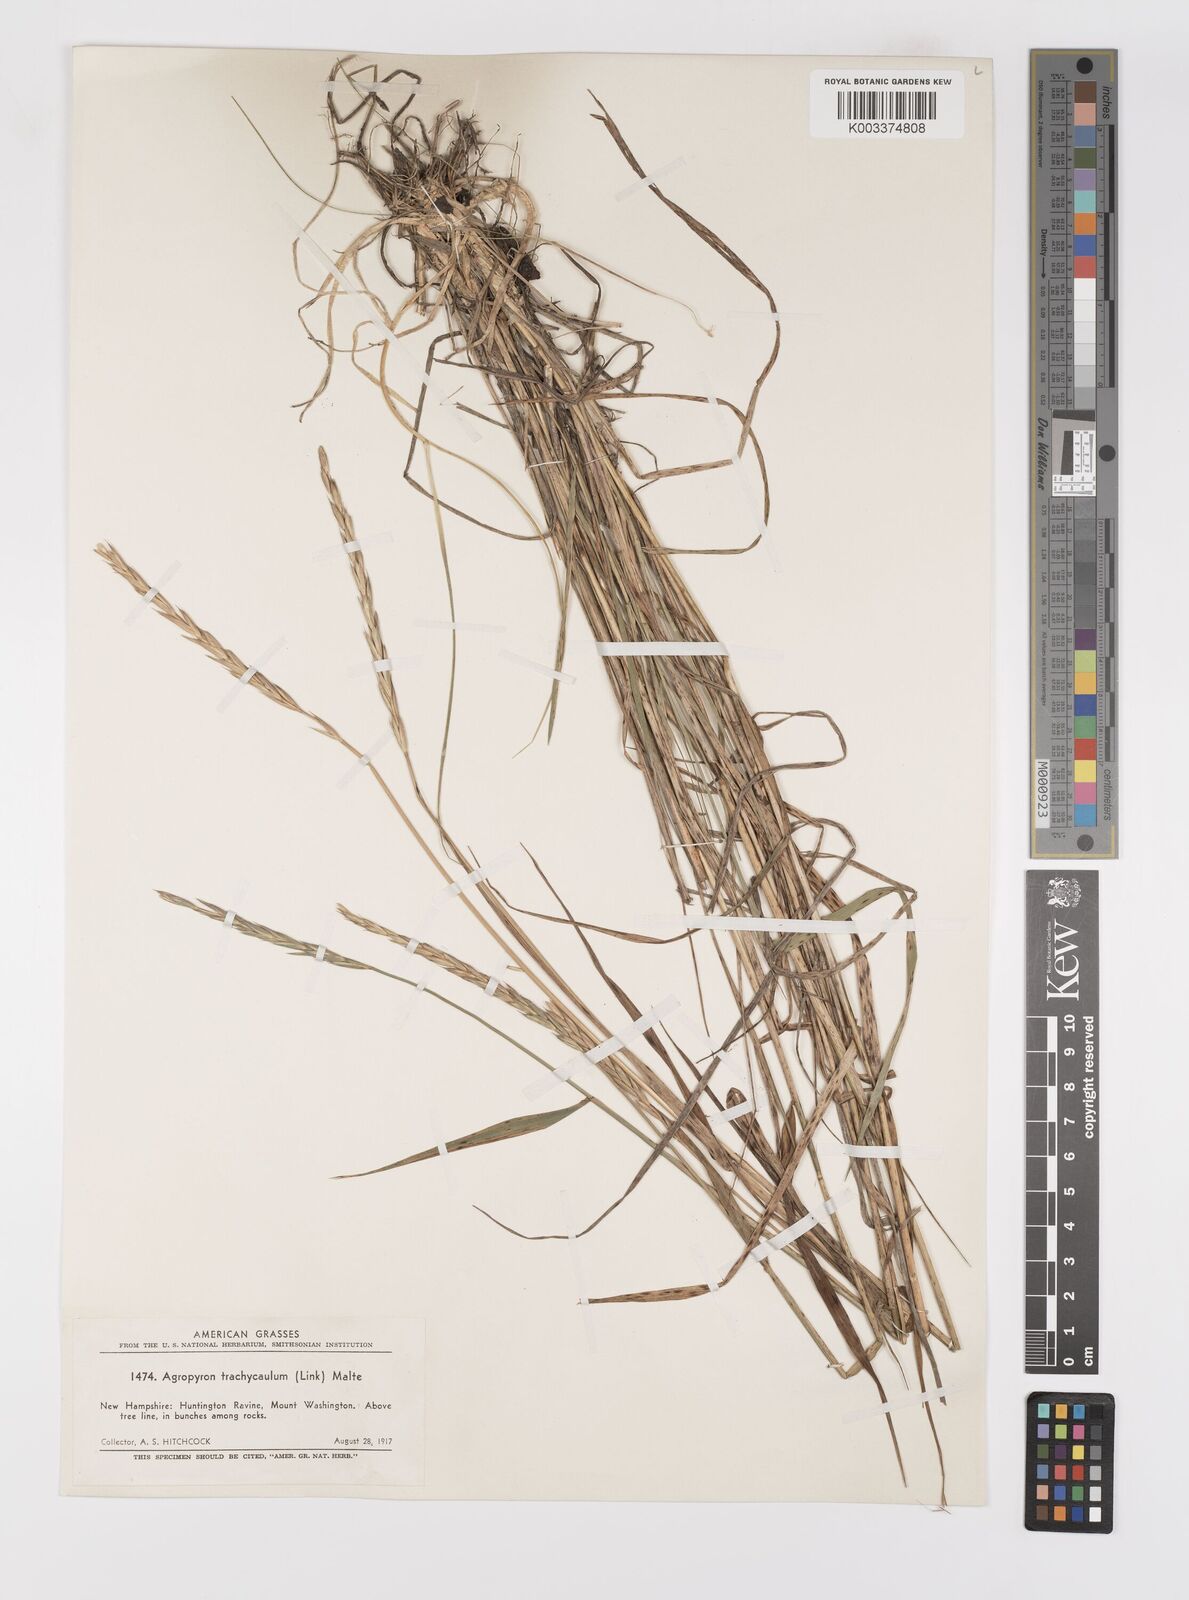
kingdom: Plantae
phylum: Tracheophyta
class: Liliopsida
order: Poales
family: Poaceae
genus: Elymus
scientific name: Elymus violaceus
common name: Arctic wheatgrass
